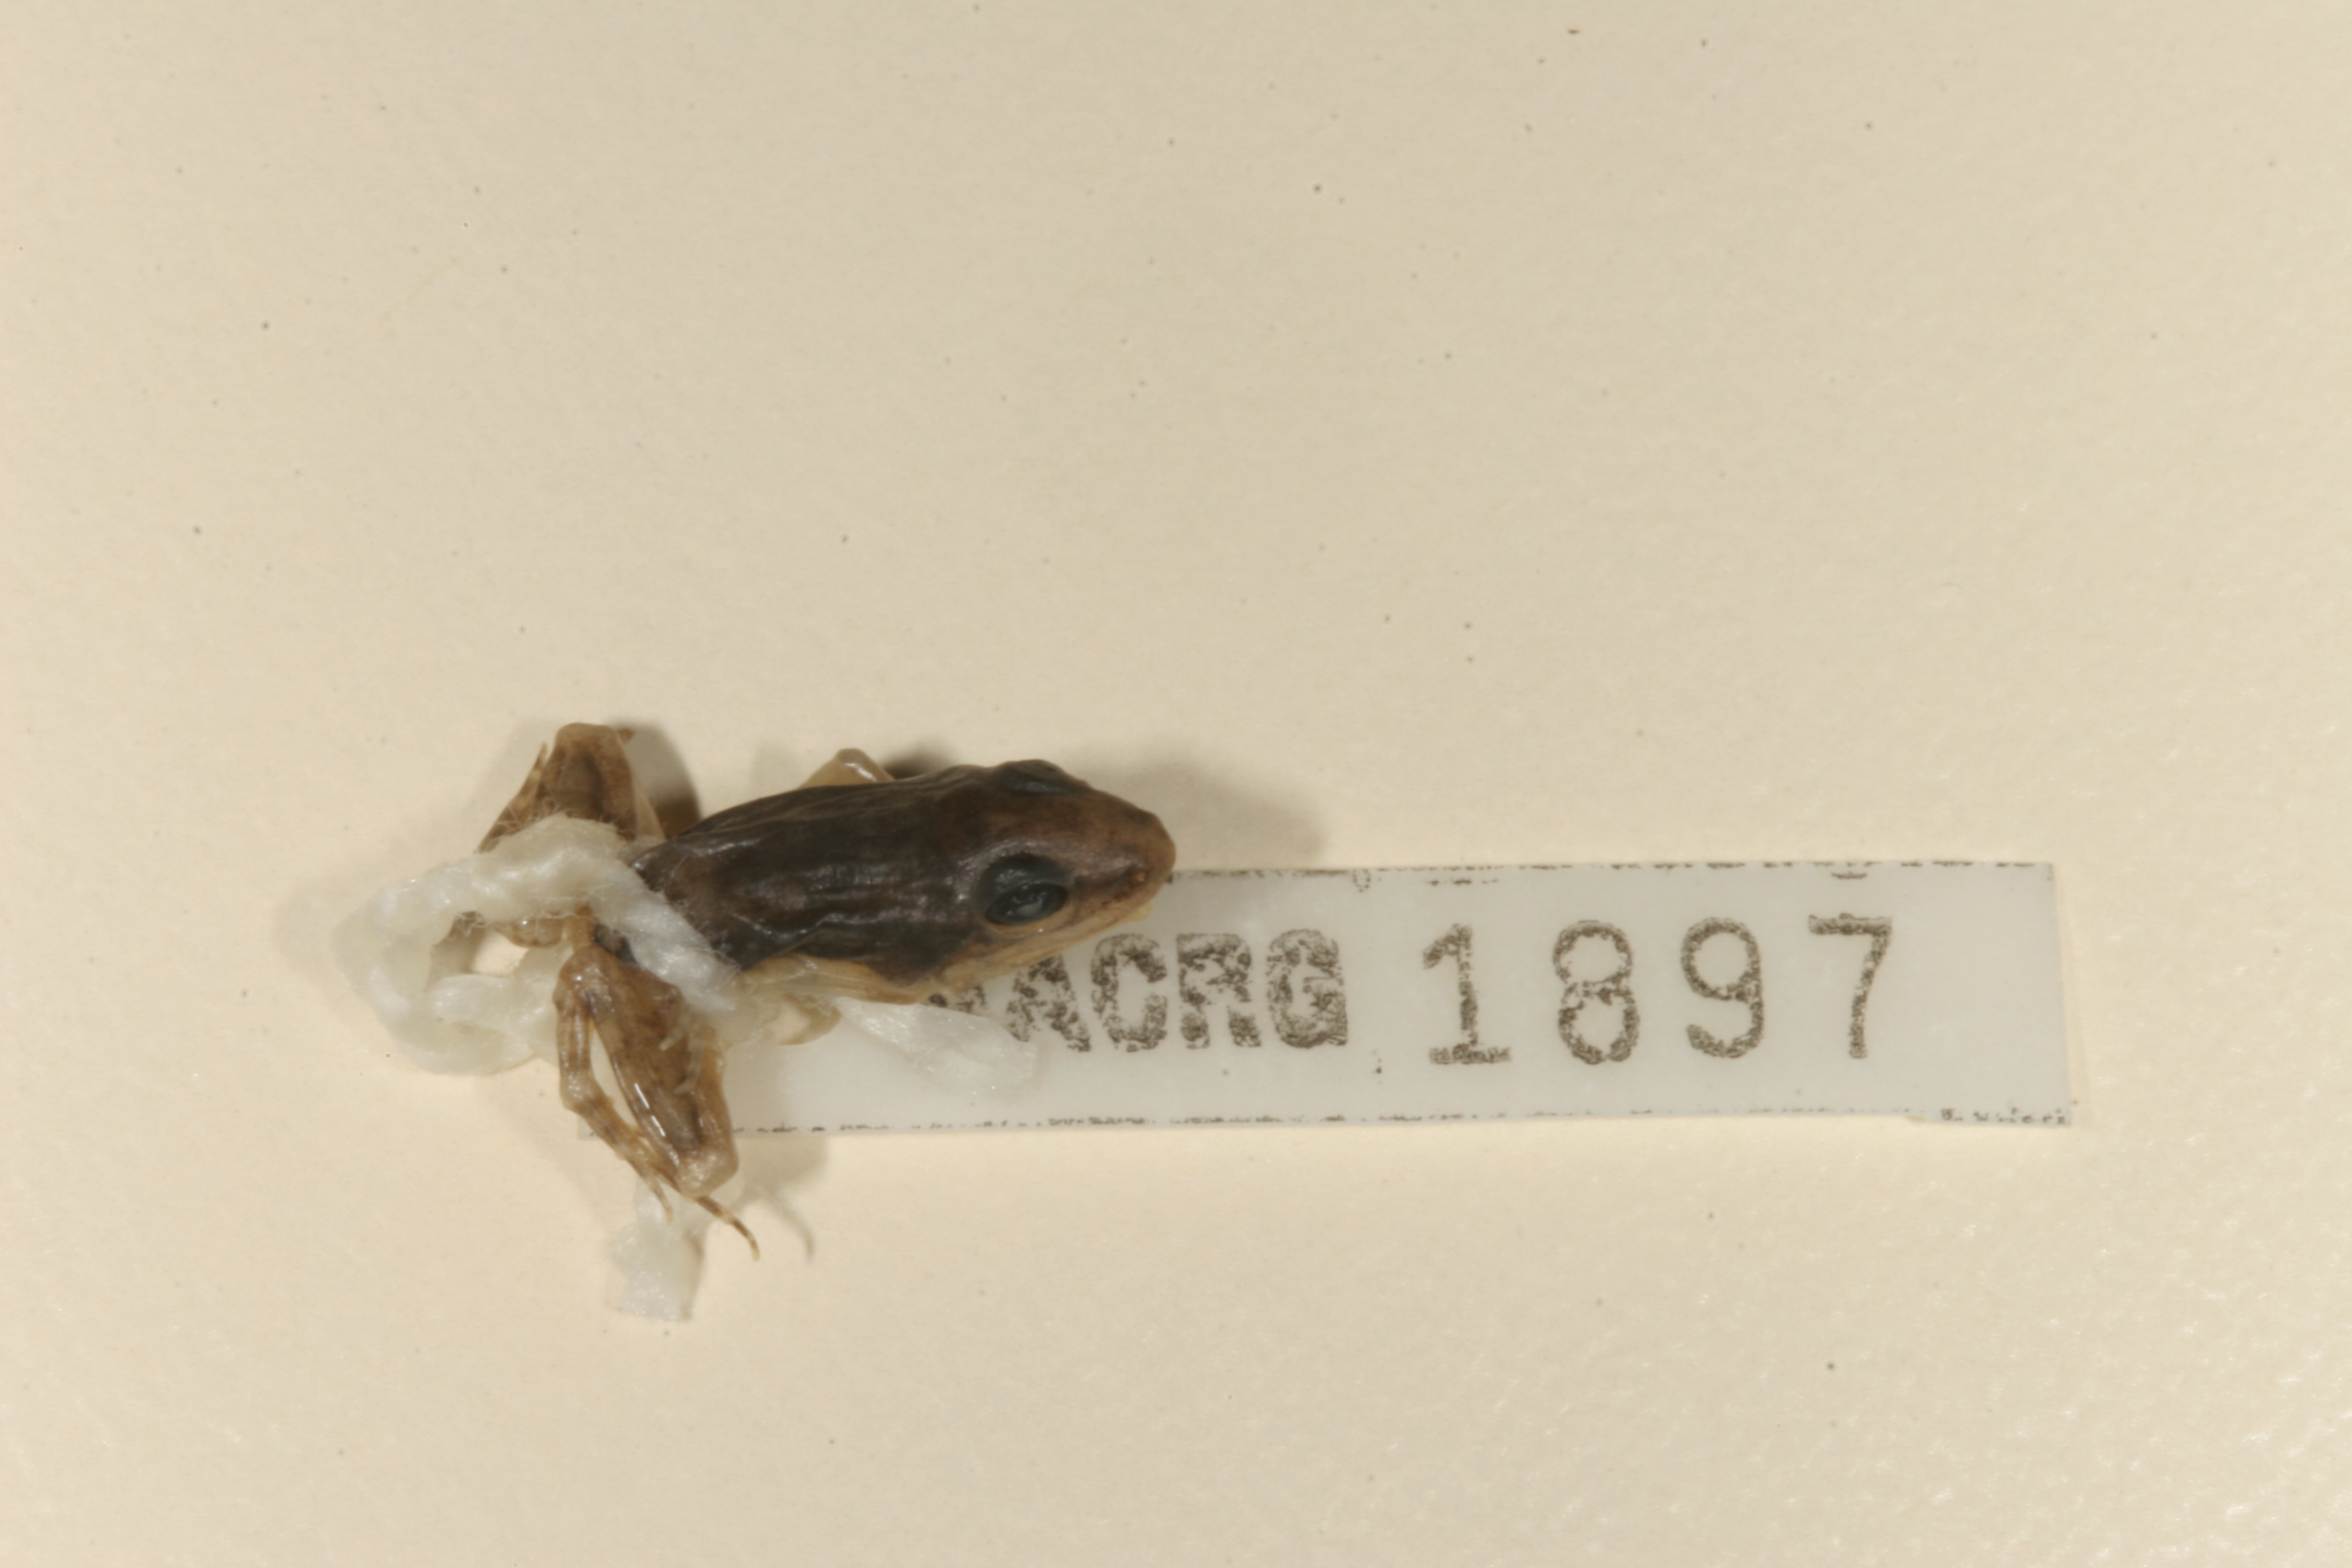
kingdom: Animalia
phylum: Chordata
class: Amphibia
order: Anura
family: Ptychadenidae
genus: Ptychadena
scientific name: Ptychadena anchietae
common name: Anchieta's ridged frog
